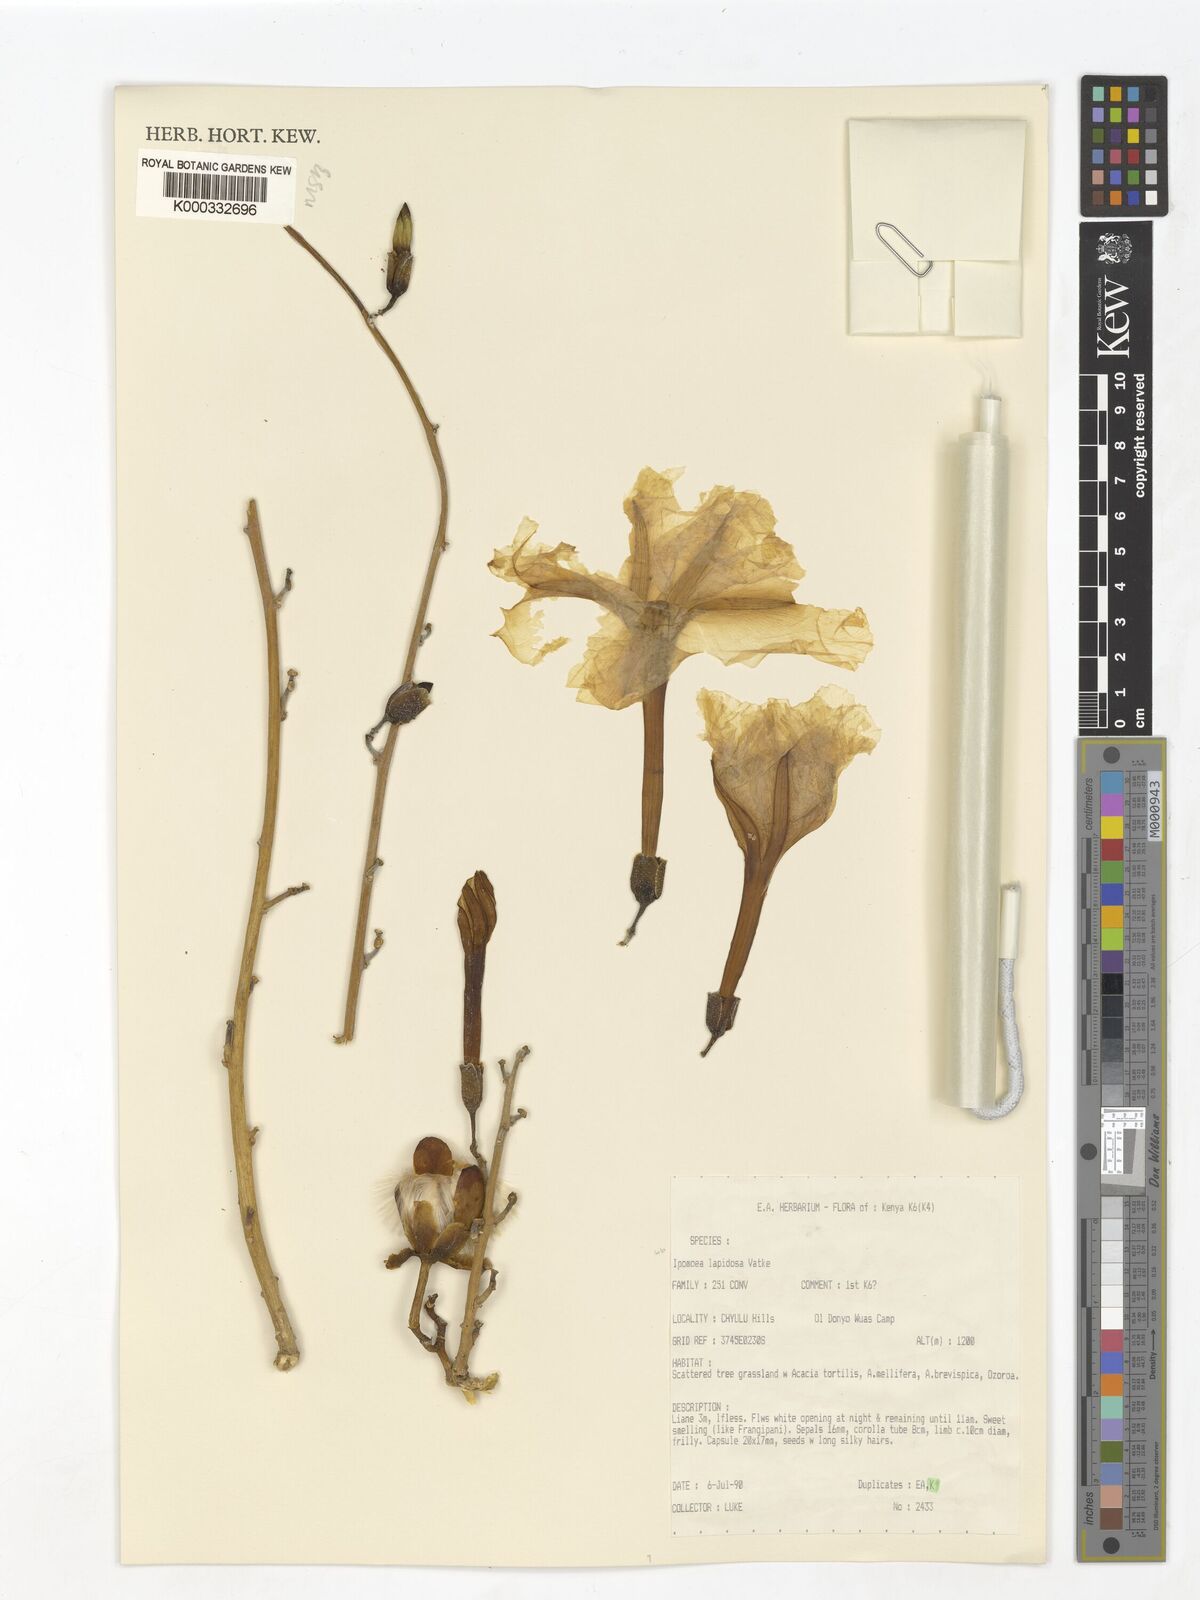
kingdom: Plantae
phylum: Tracheophyta
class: Magnoliopsida
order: Solanales
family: Convolvulaceae
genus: Ipomoea
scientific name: Ipomoea lapidosa
